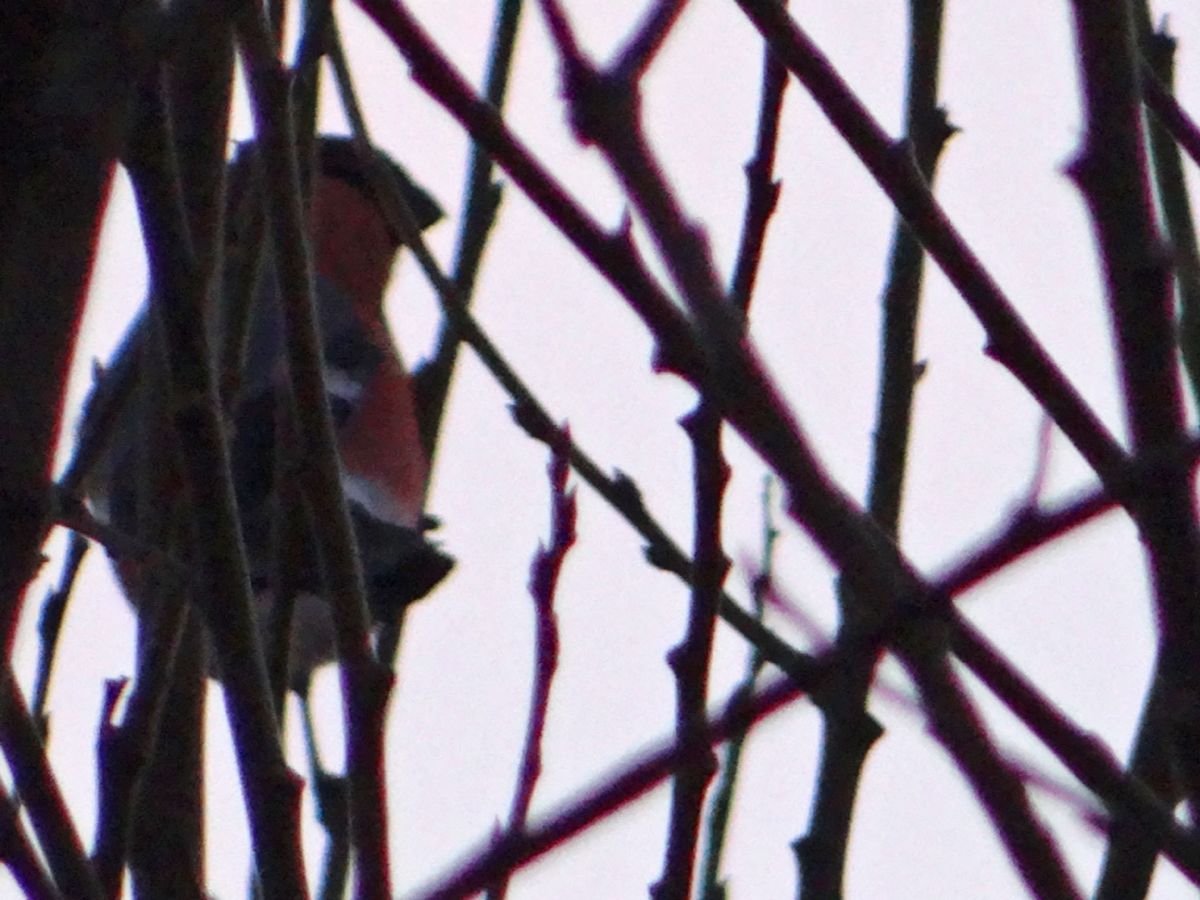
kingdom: Animalia
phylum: Chordata
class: Aves
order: Passeriformes
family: Fringillidae
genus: Pyrrhula
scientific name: Pyrrhula pyrrhula
